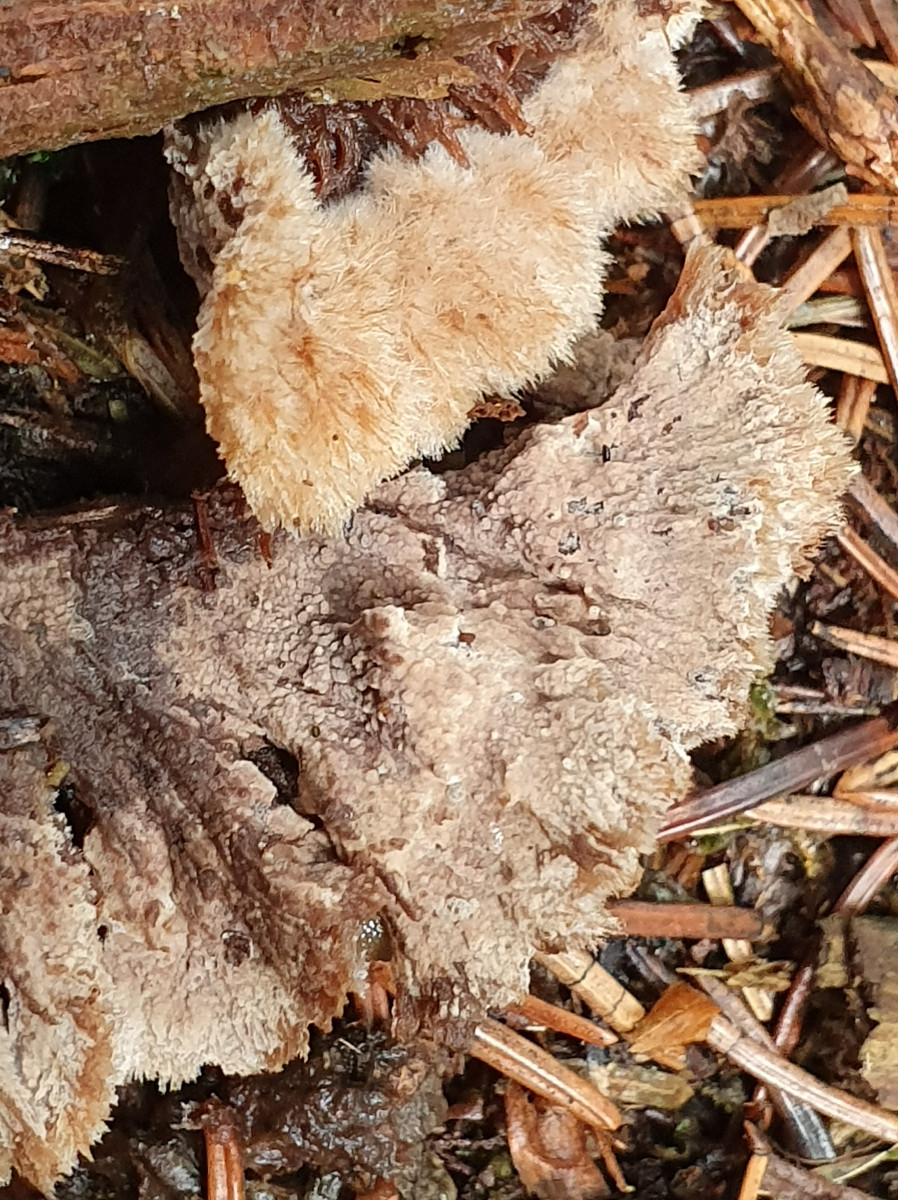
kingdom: Fungi
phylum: Basidiomycota
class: Agaricomycetes
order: Thelephorales
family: Thelephoraceae
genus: Thelephora
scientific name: Thelephora terrestris
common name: fliget frynsesvamp
